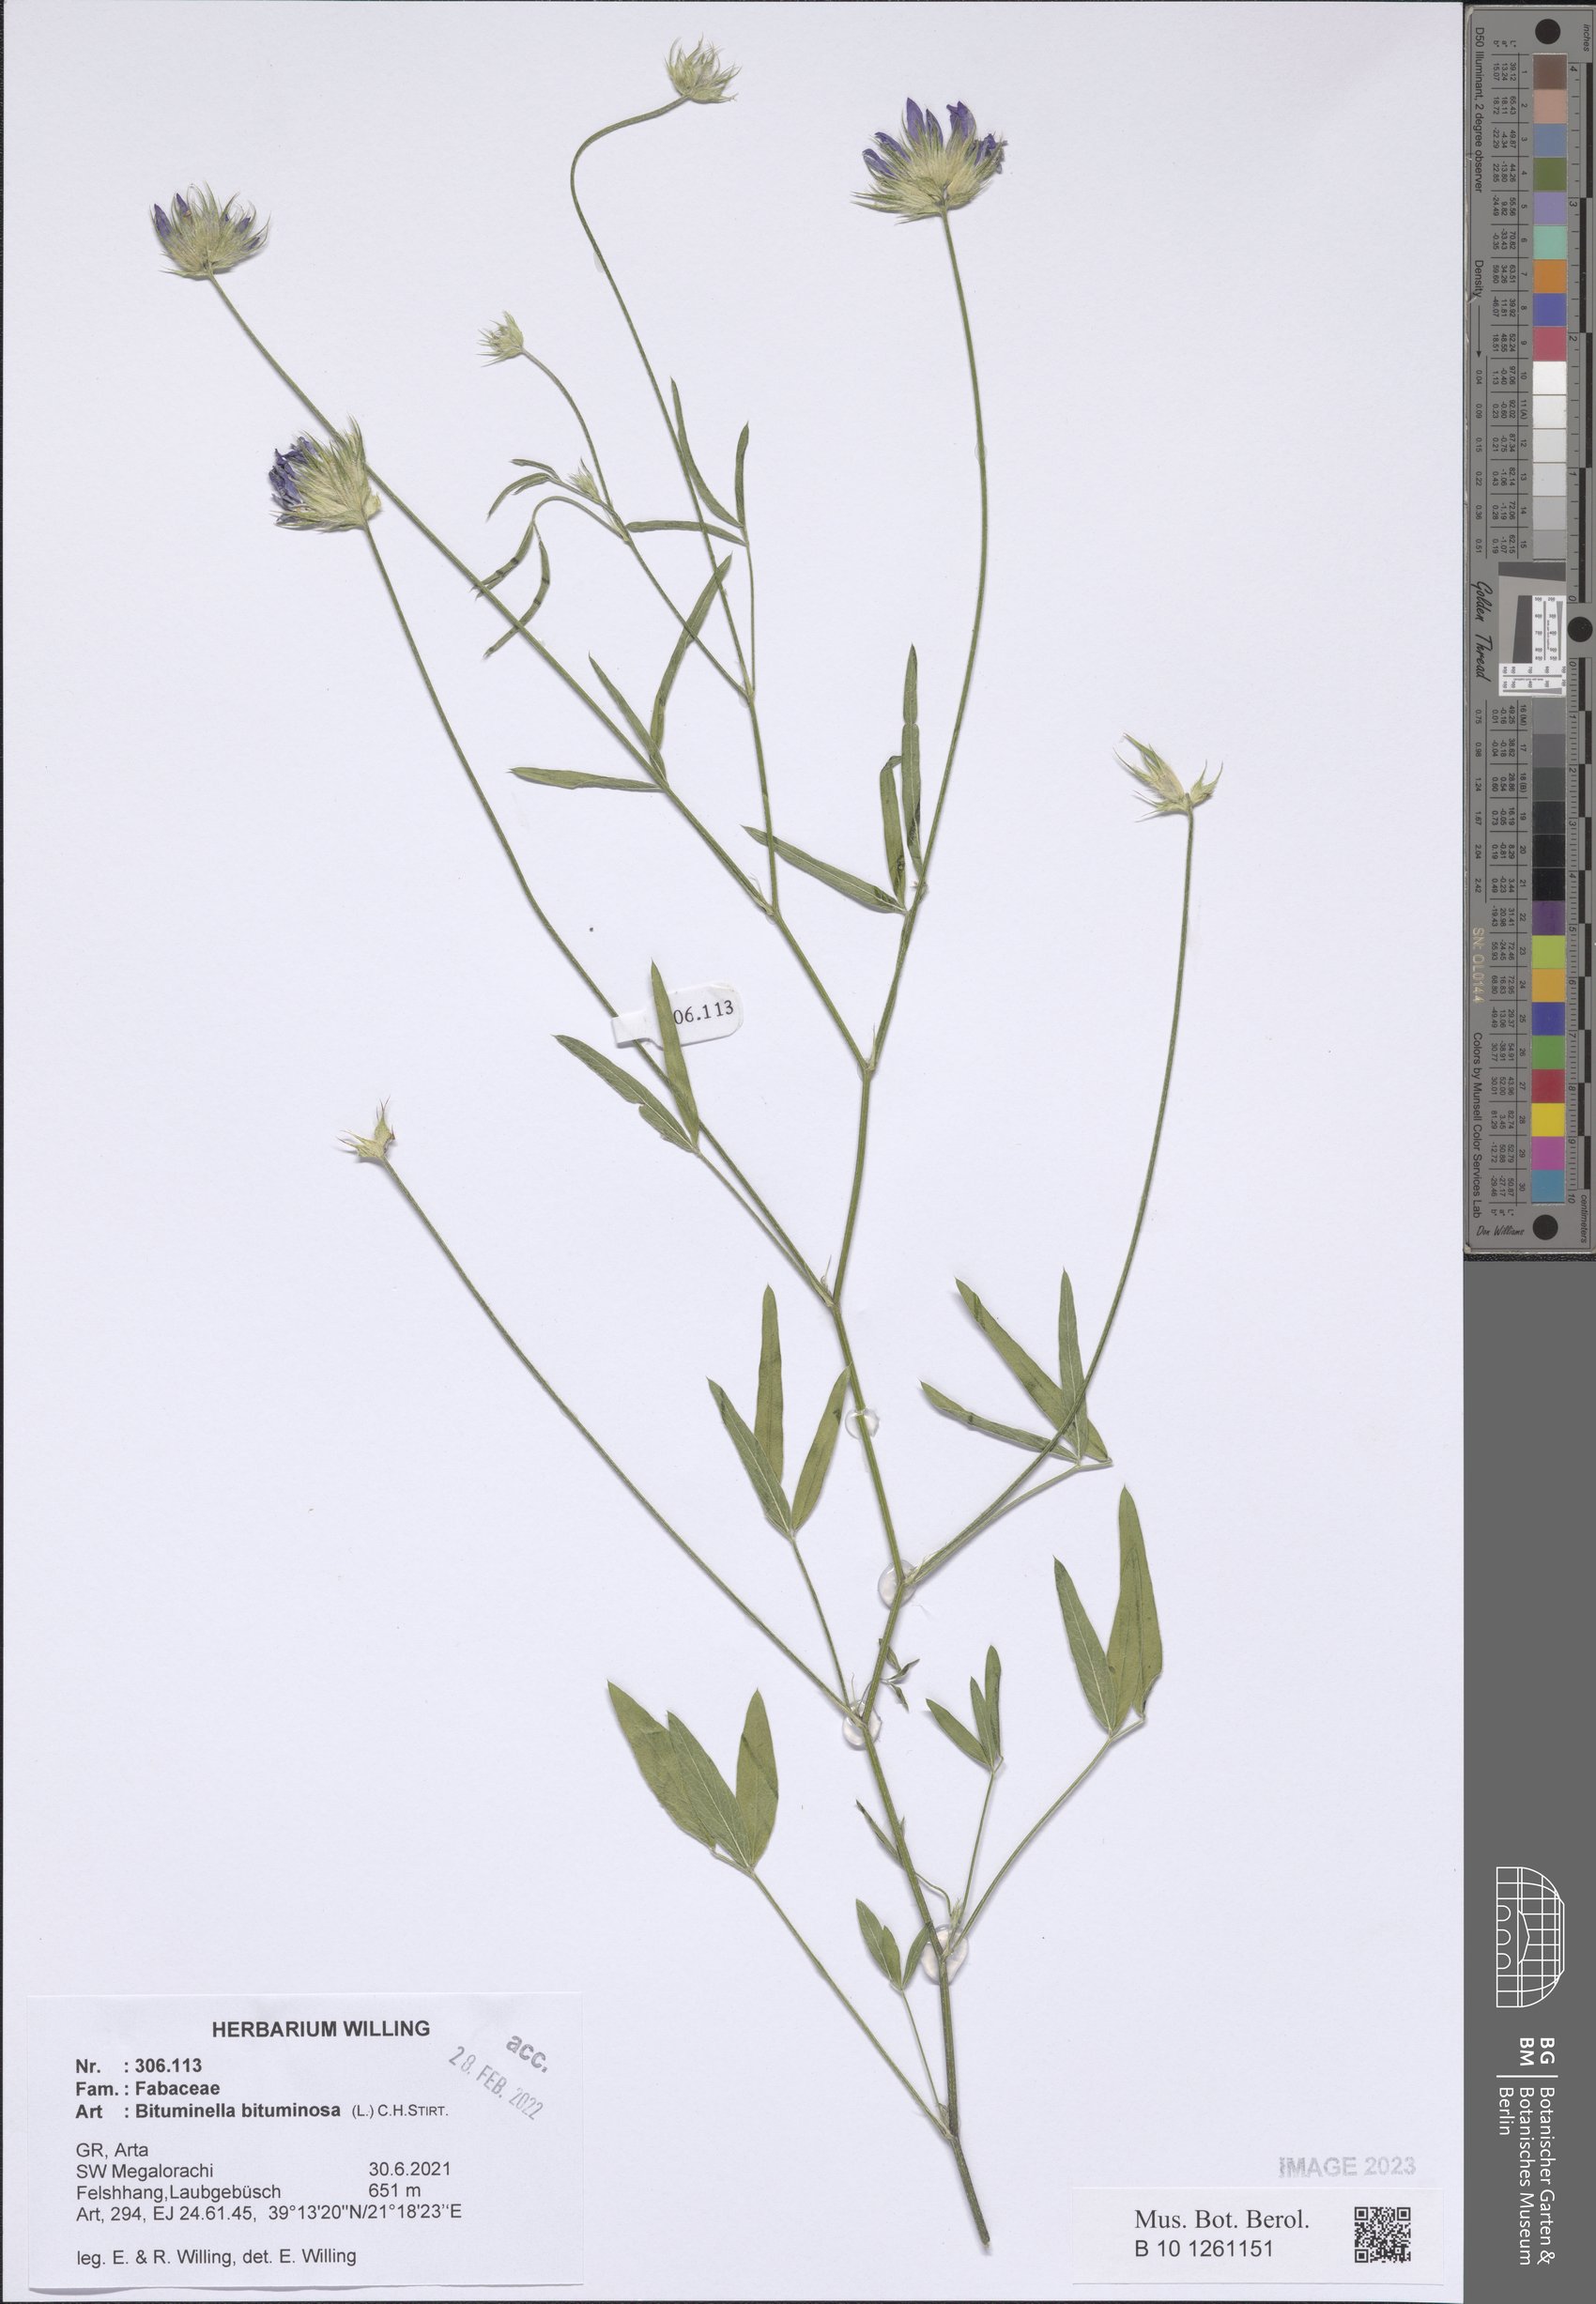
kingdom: Plantae
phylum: Tracheophyta
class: Magnoliopsida
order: Fabales
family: Fabaceae
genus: Bituminaria
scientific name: Bituminaria bituminosa
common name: Arabian pea
